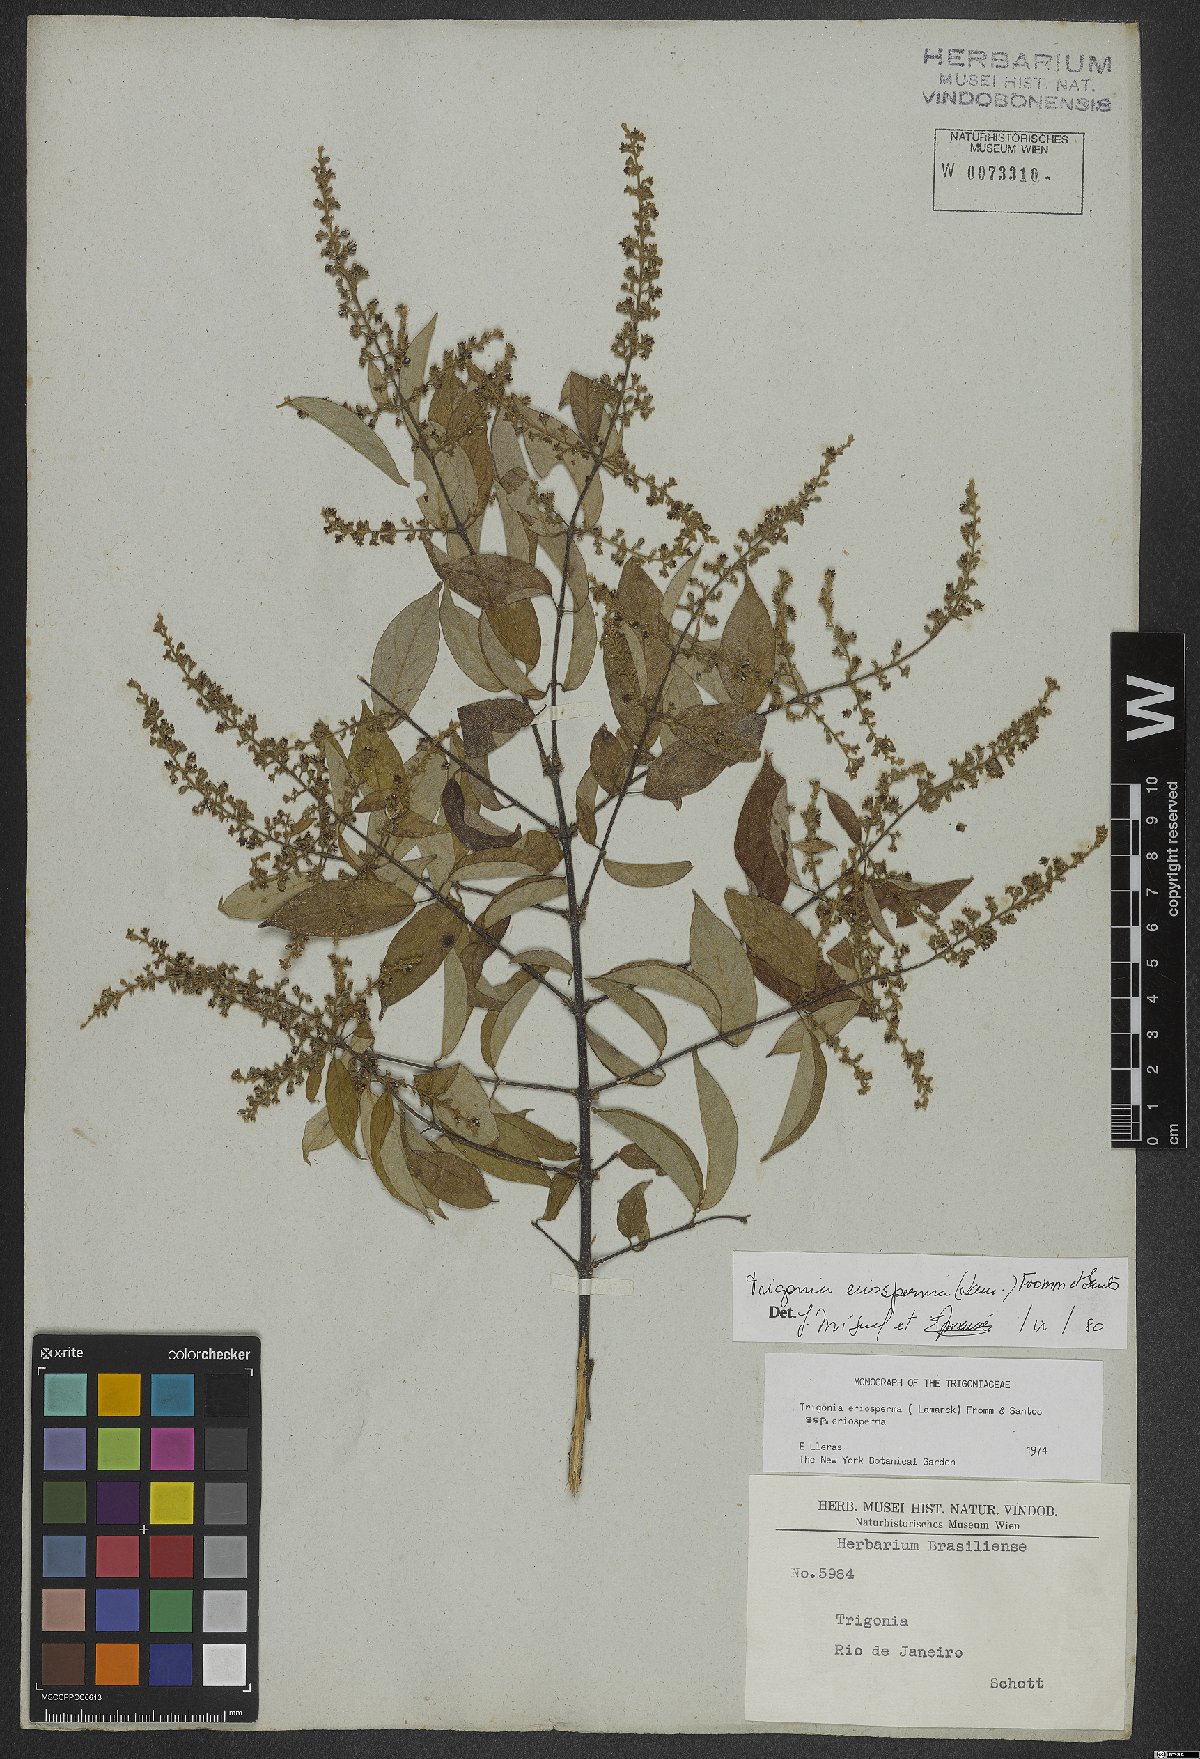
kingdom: Plantae
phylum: Tracheophyta
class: Magnoliopsida
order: Malpighiales
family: Trigoniaceae
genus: Trigonia
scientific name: Trigonia eriosperma
